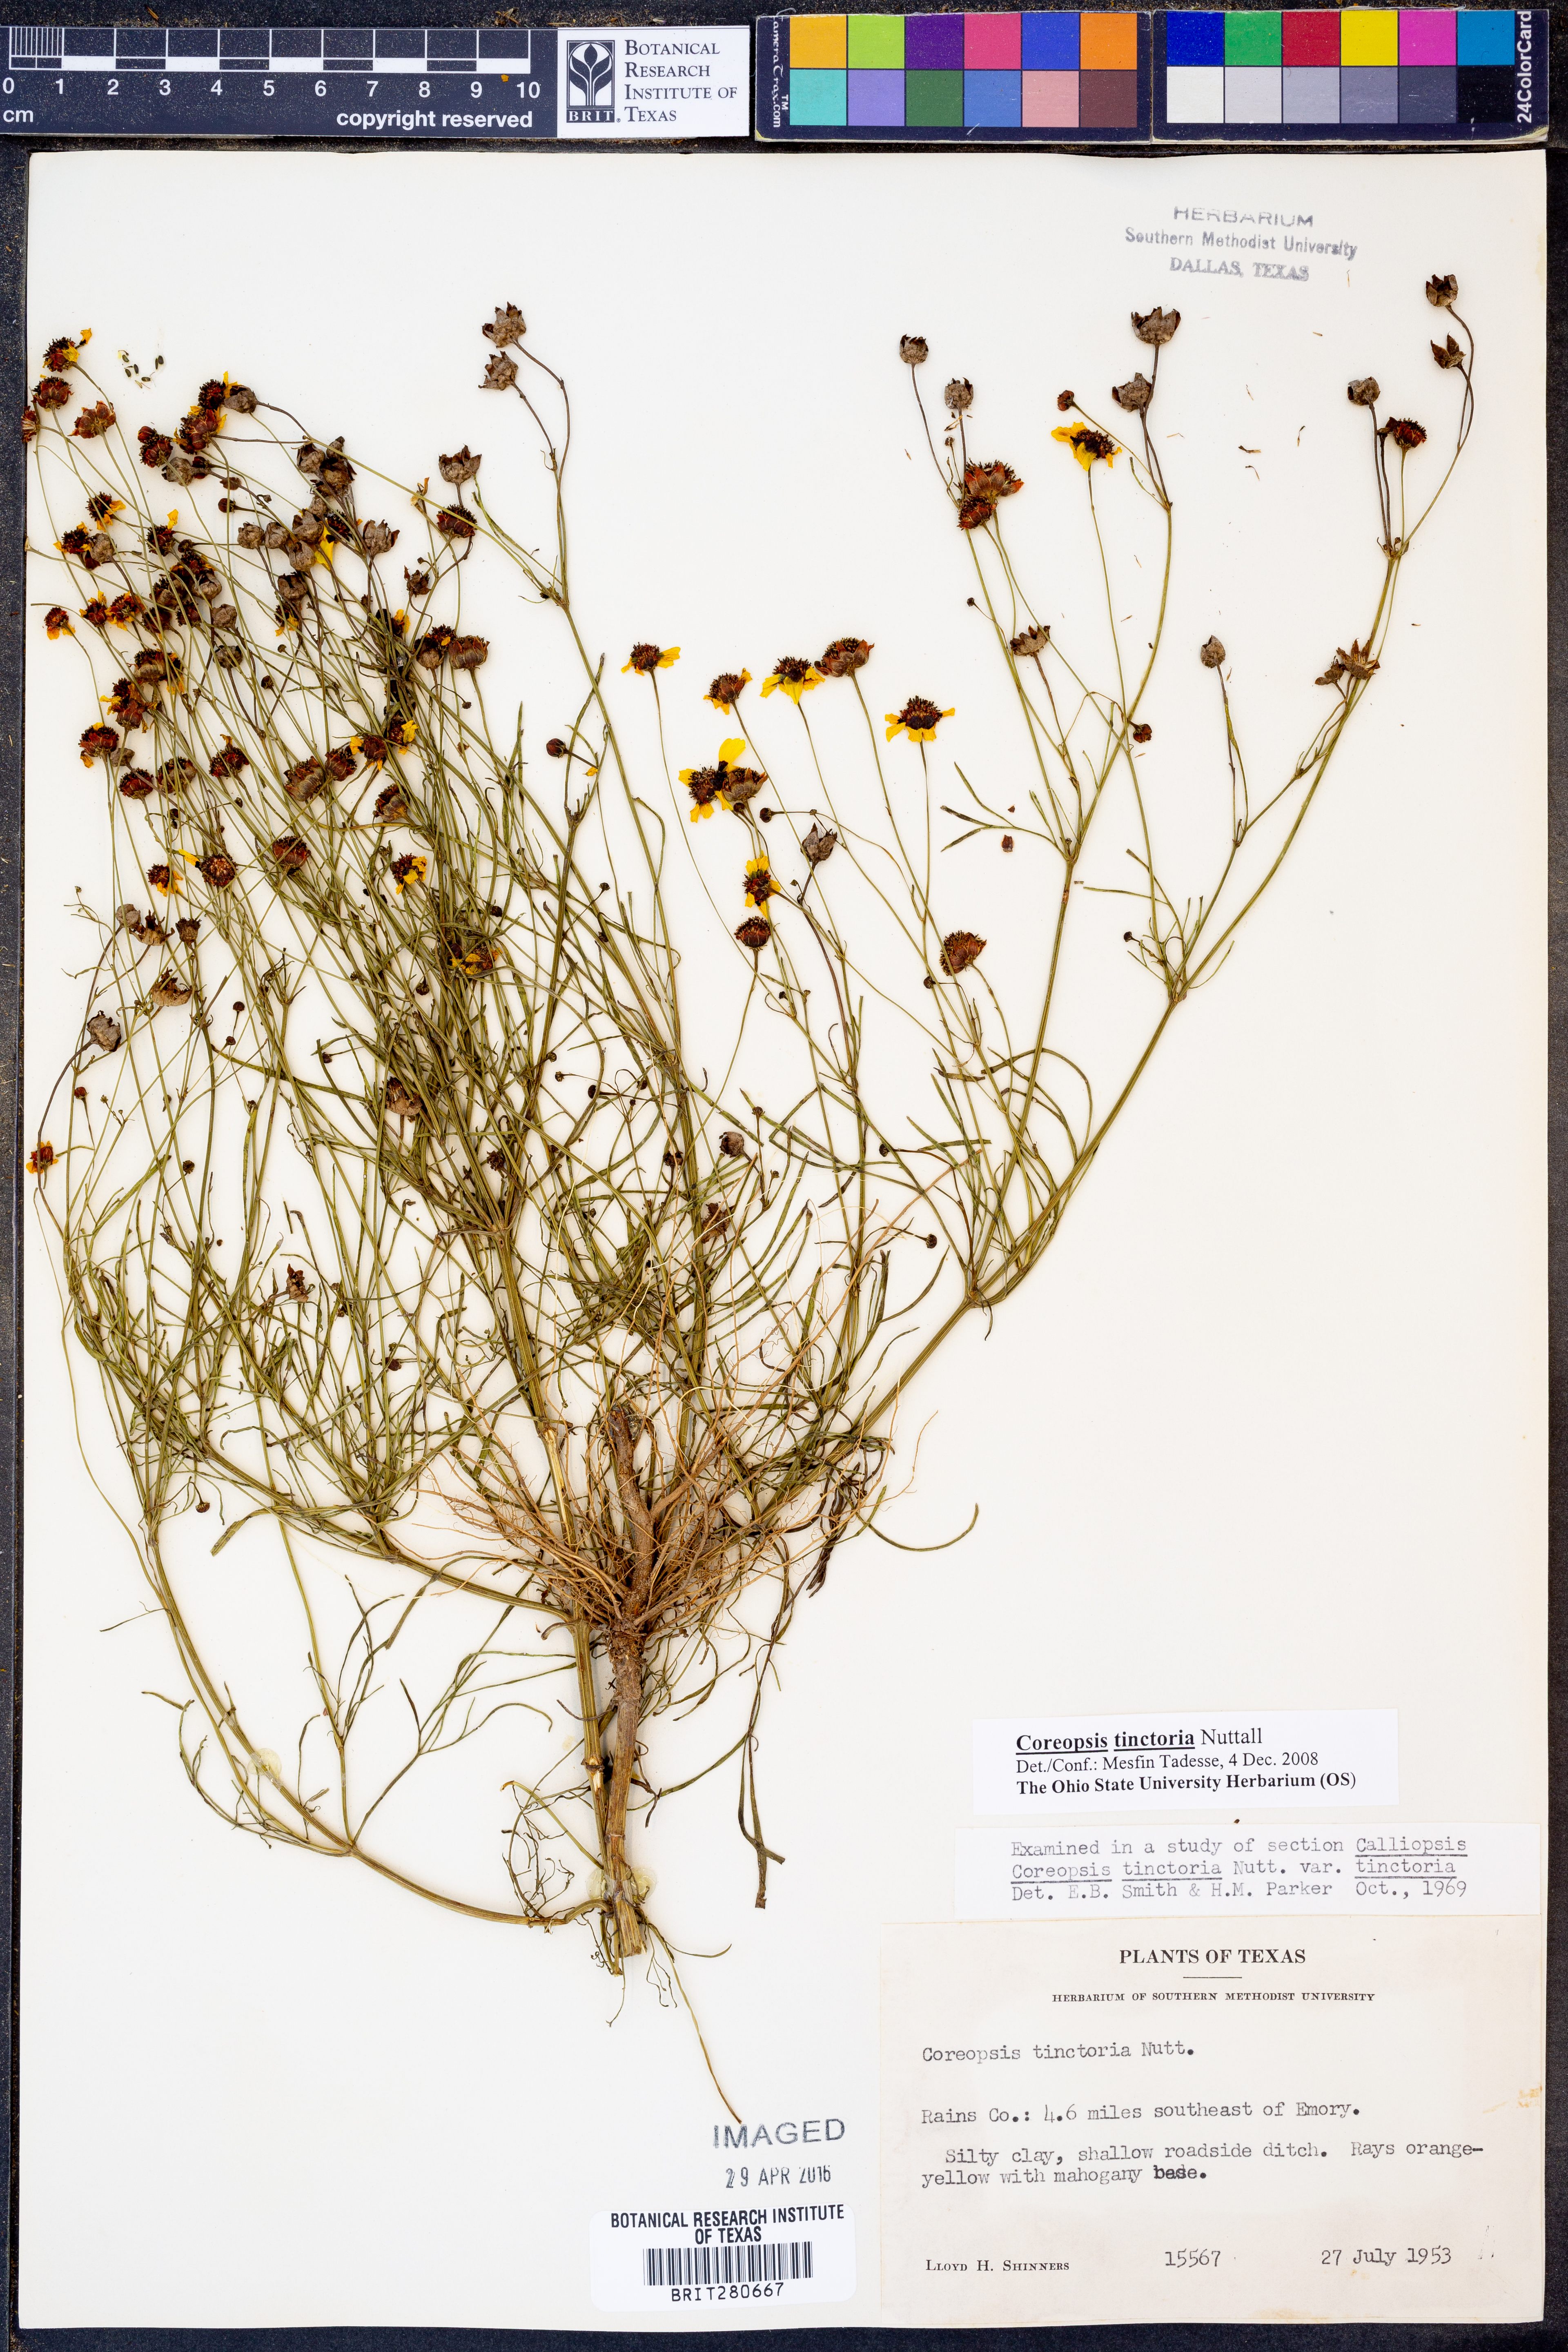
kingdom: Plantae
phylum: Tracheophyta
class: Magnoliopsida
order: Asterales
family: Asteraceae
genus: Coreopsis
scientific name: Coreopsis tinctoria
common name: Garden tickseed
